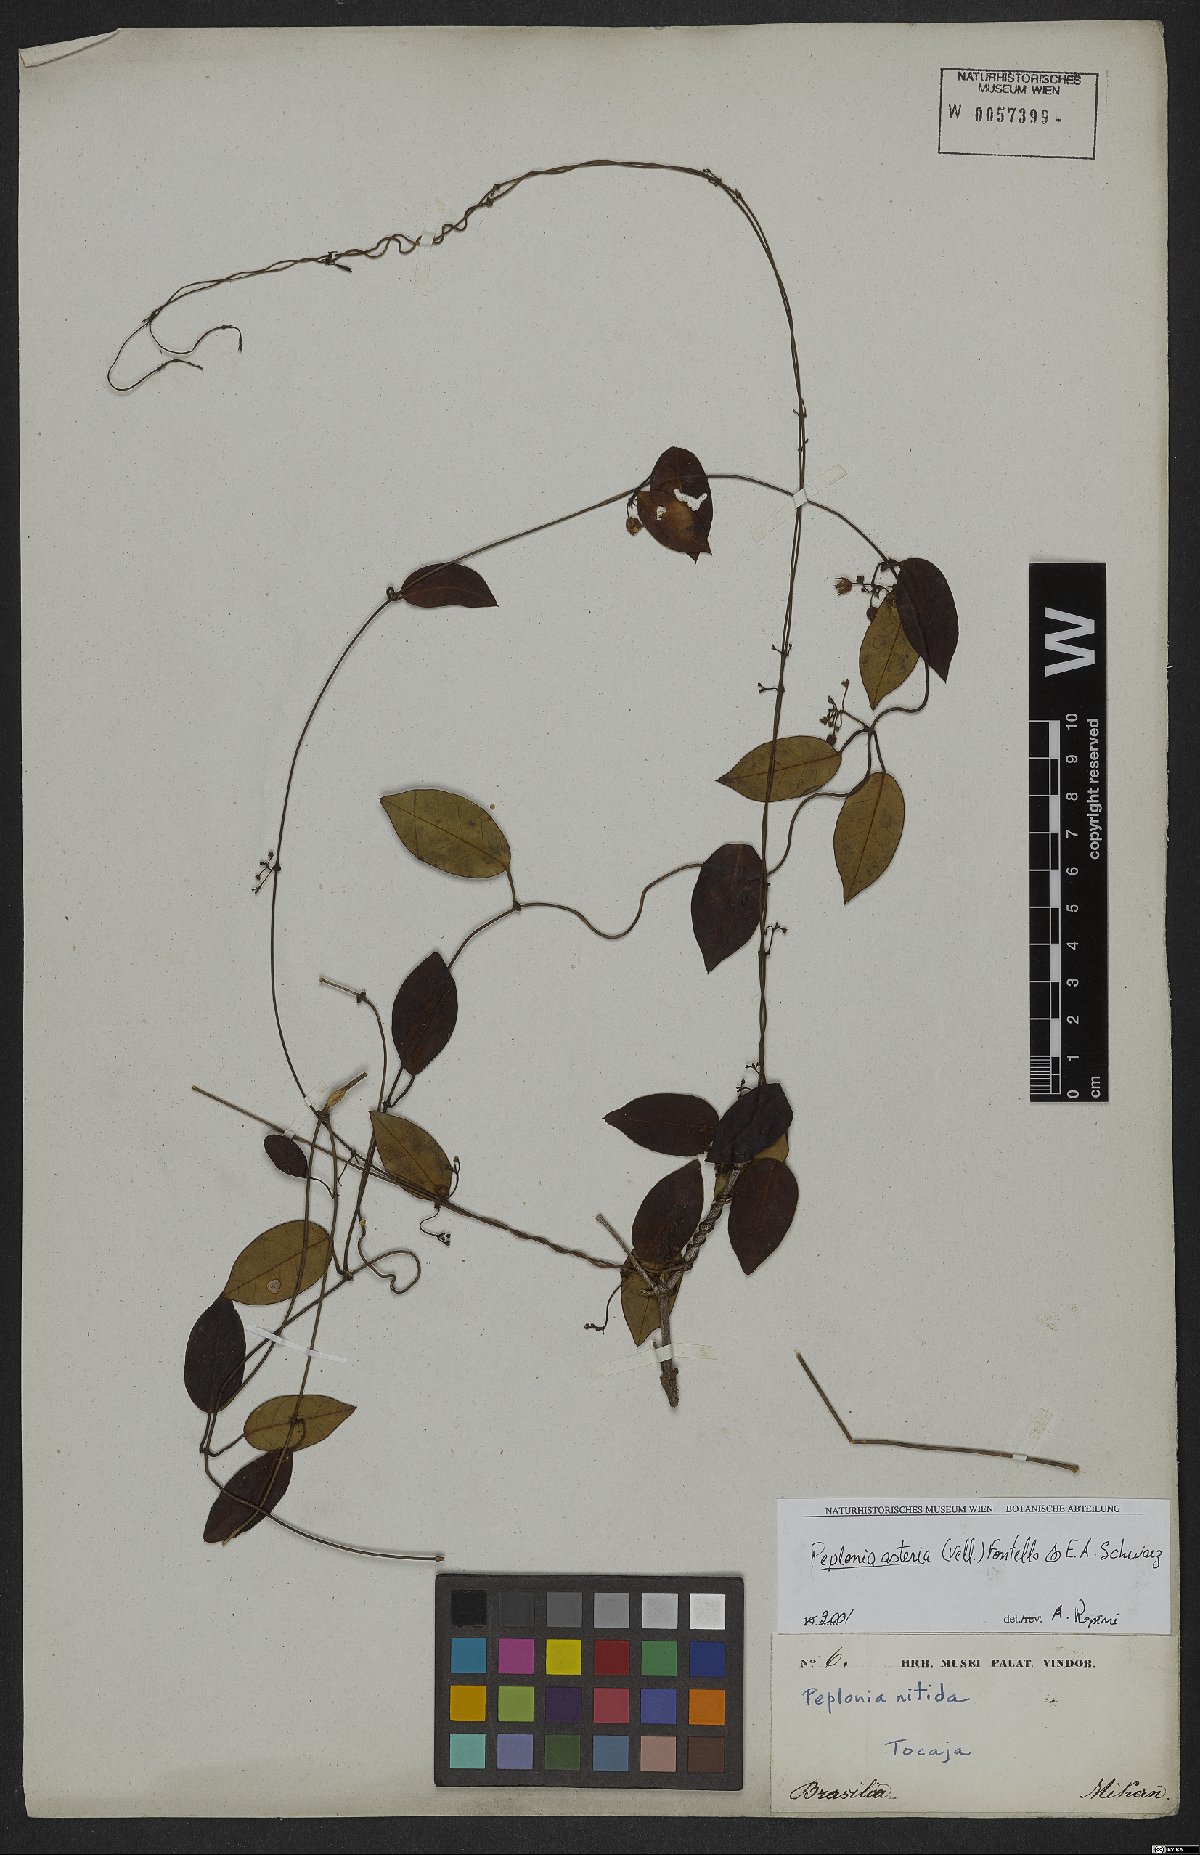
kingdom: Plantae
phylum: Tracheophyta
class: Magnoliopsida
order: Gentianales
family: Apocynaceae
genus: Peplonia
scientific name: Peplonia asteria
